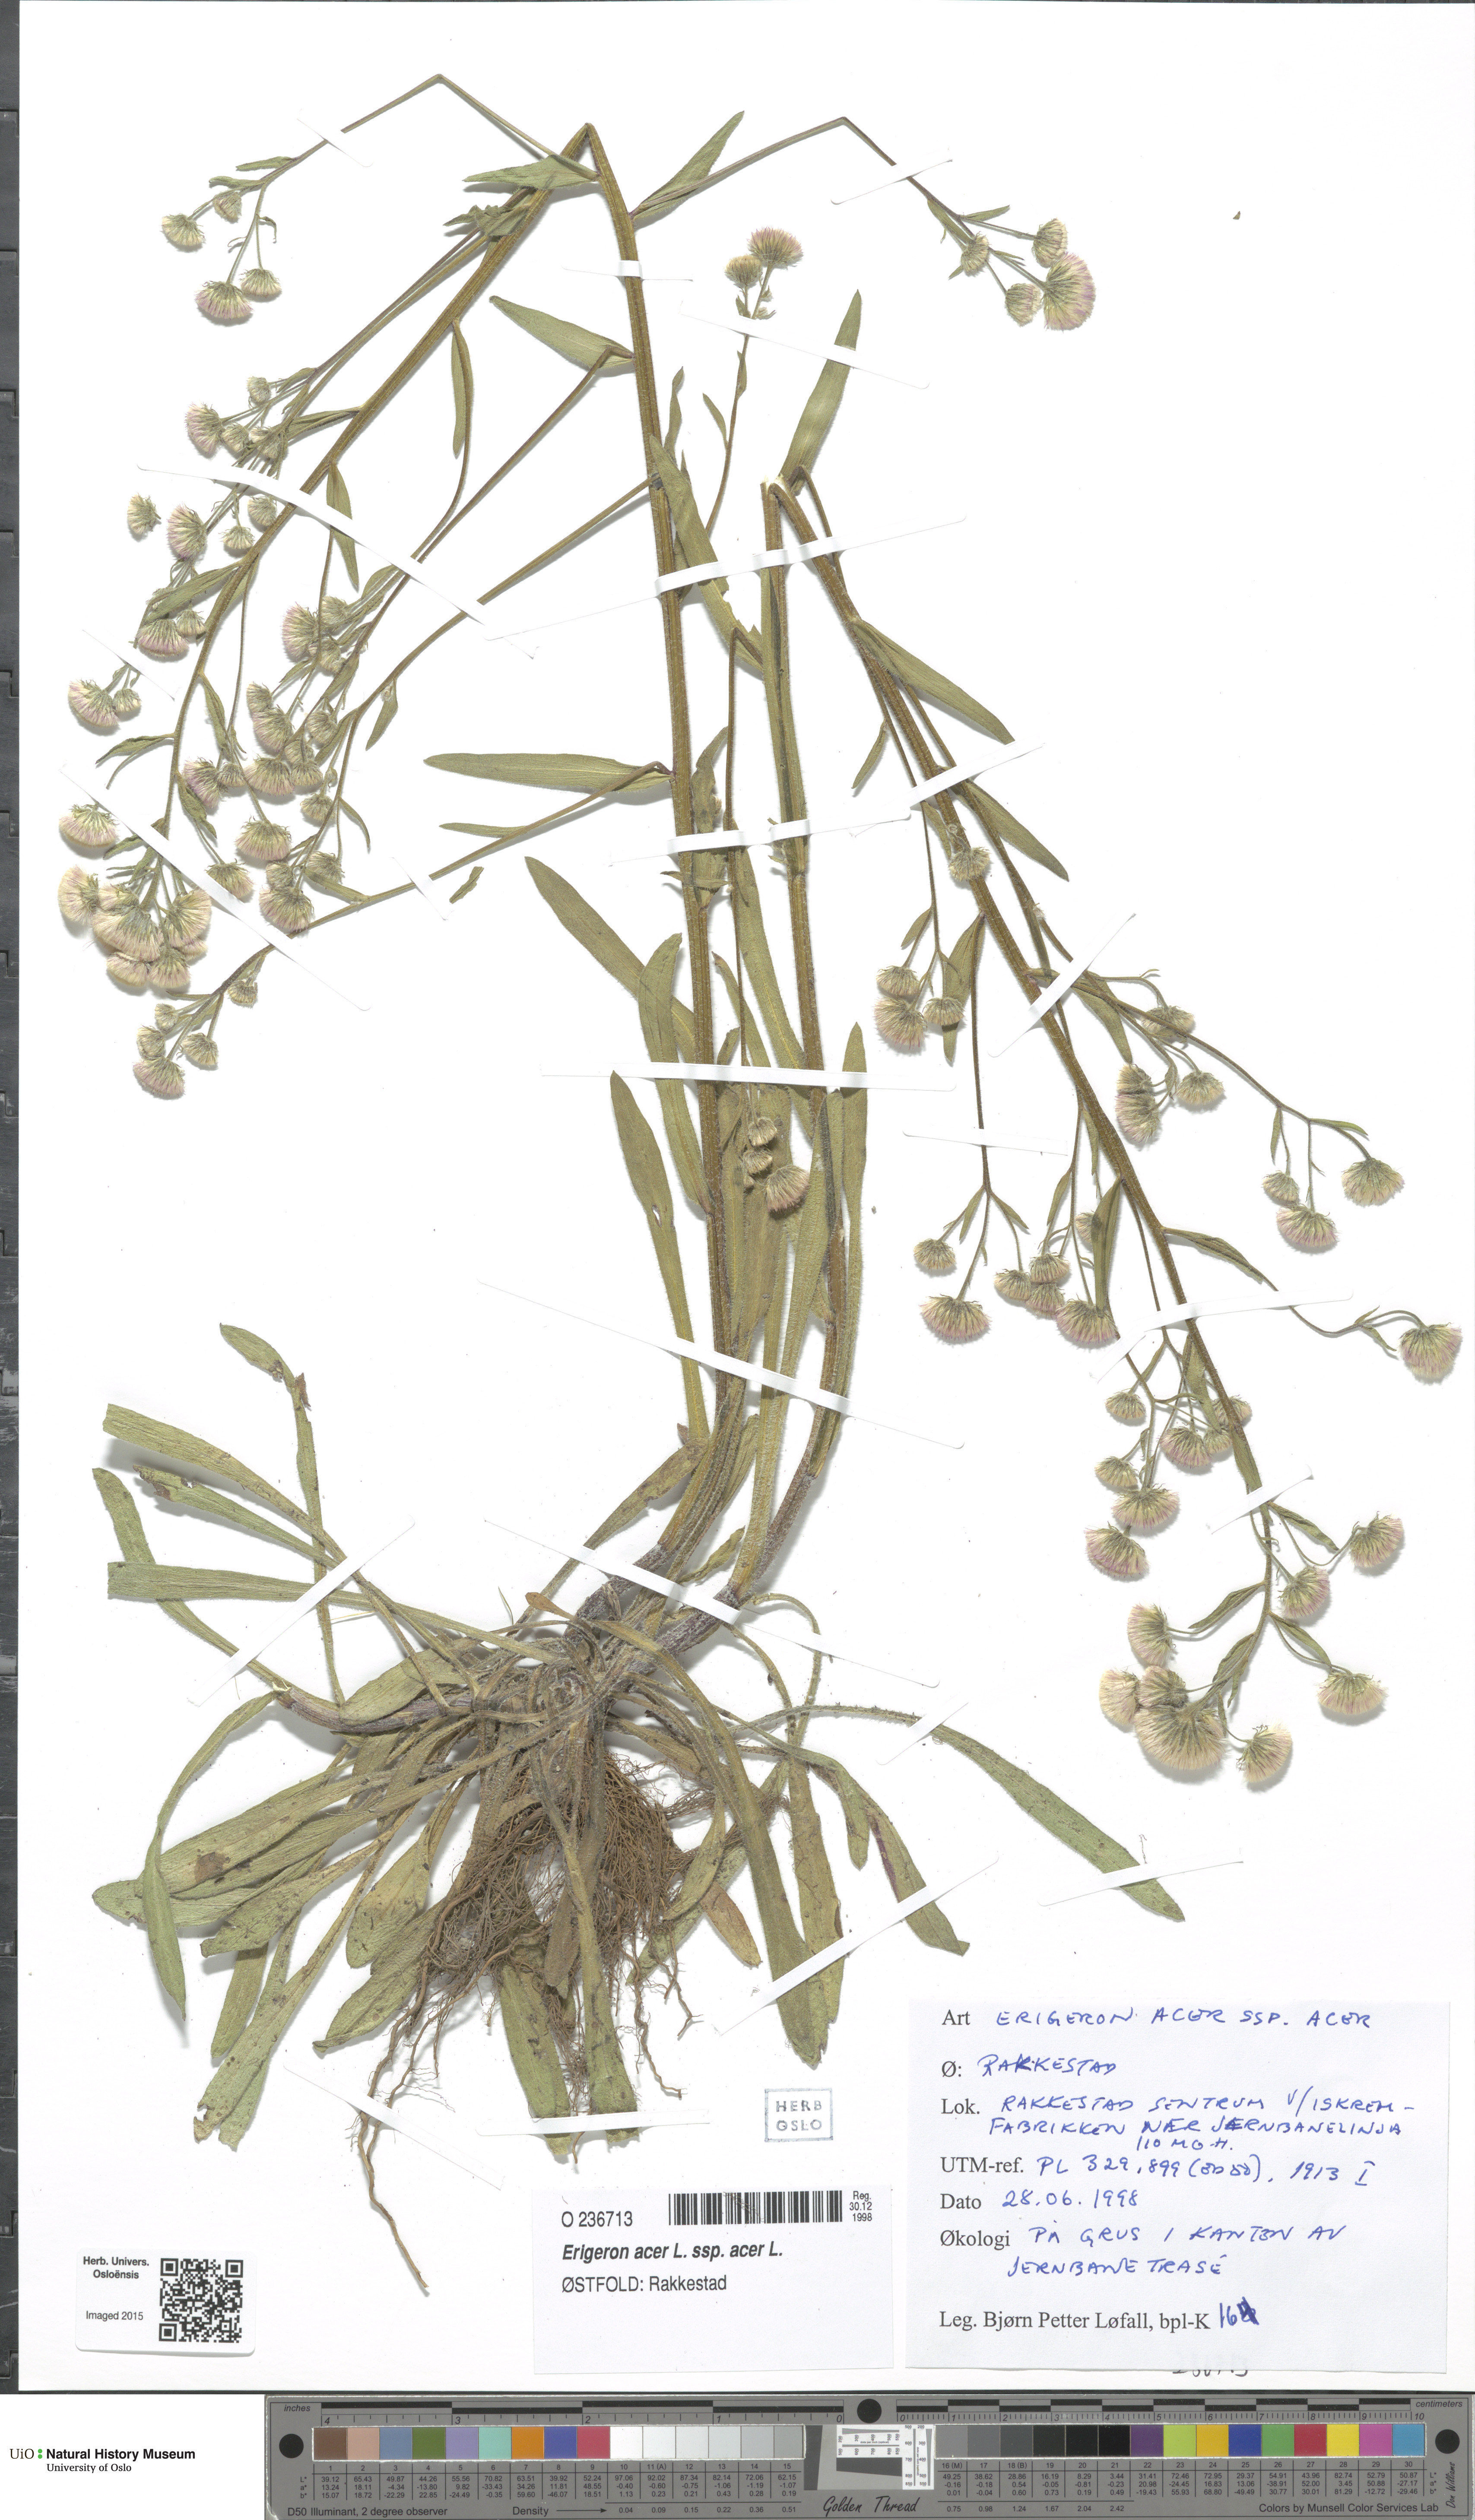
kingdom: Plantae
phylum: Tracheophyta
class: Magnoliopsida
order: Asterales
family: Asteraceae
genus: Erigeron
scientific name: Erigeron acris
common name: Blue fleabane
